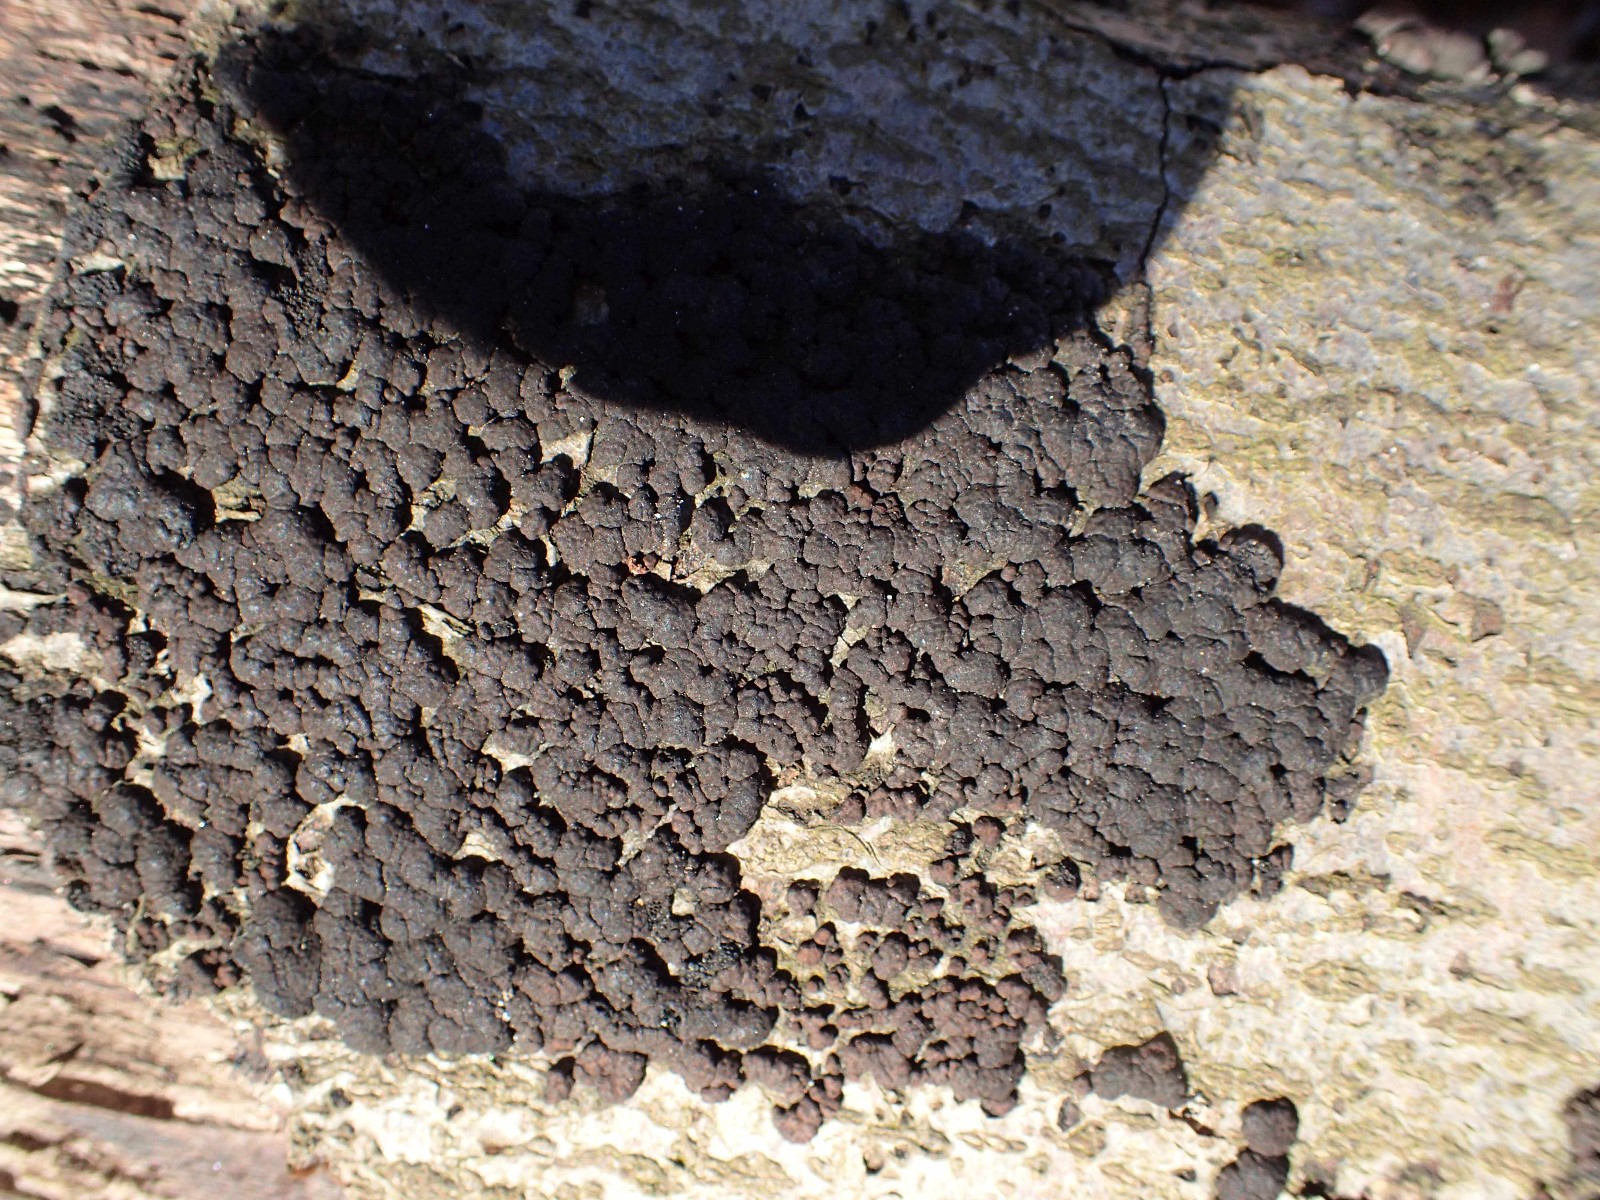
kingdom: Fungi
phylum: Ascomycota
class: Sordariomycetes
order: Xylariales
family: Hypoxylaceae
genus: Jackrogersella
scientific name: Jackrogersella cohaerens
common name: sammenflydende kulbær
